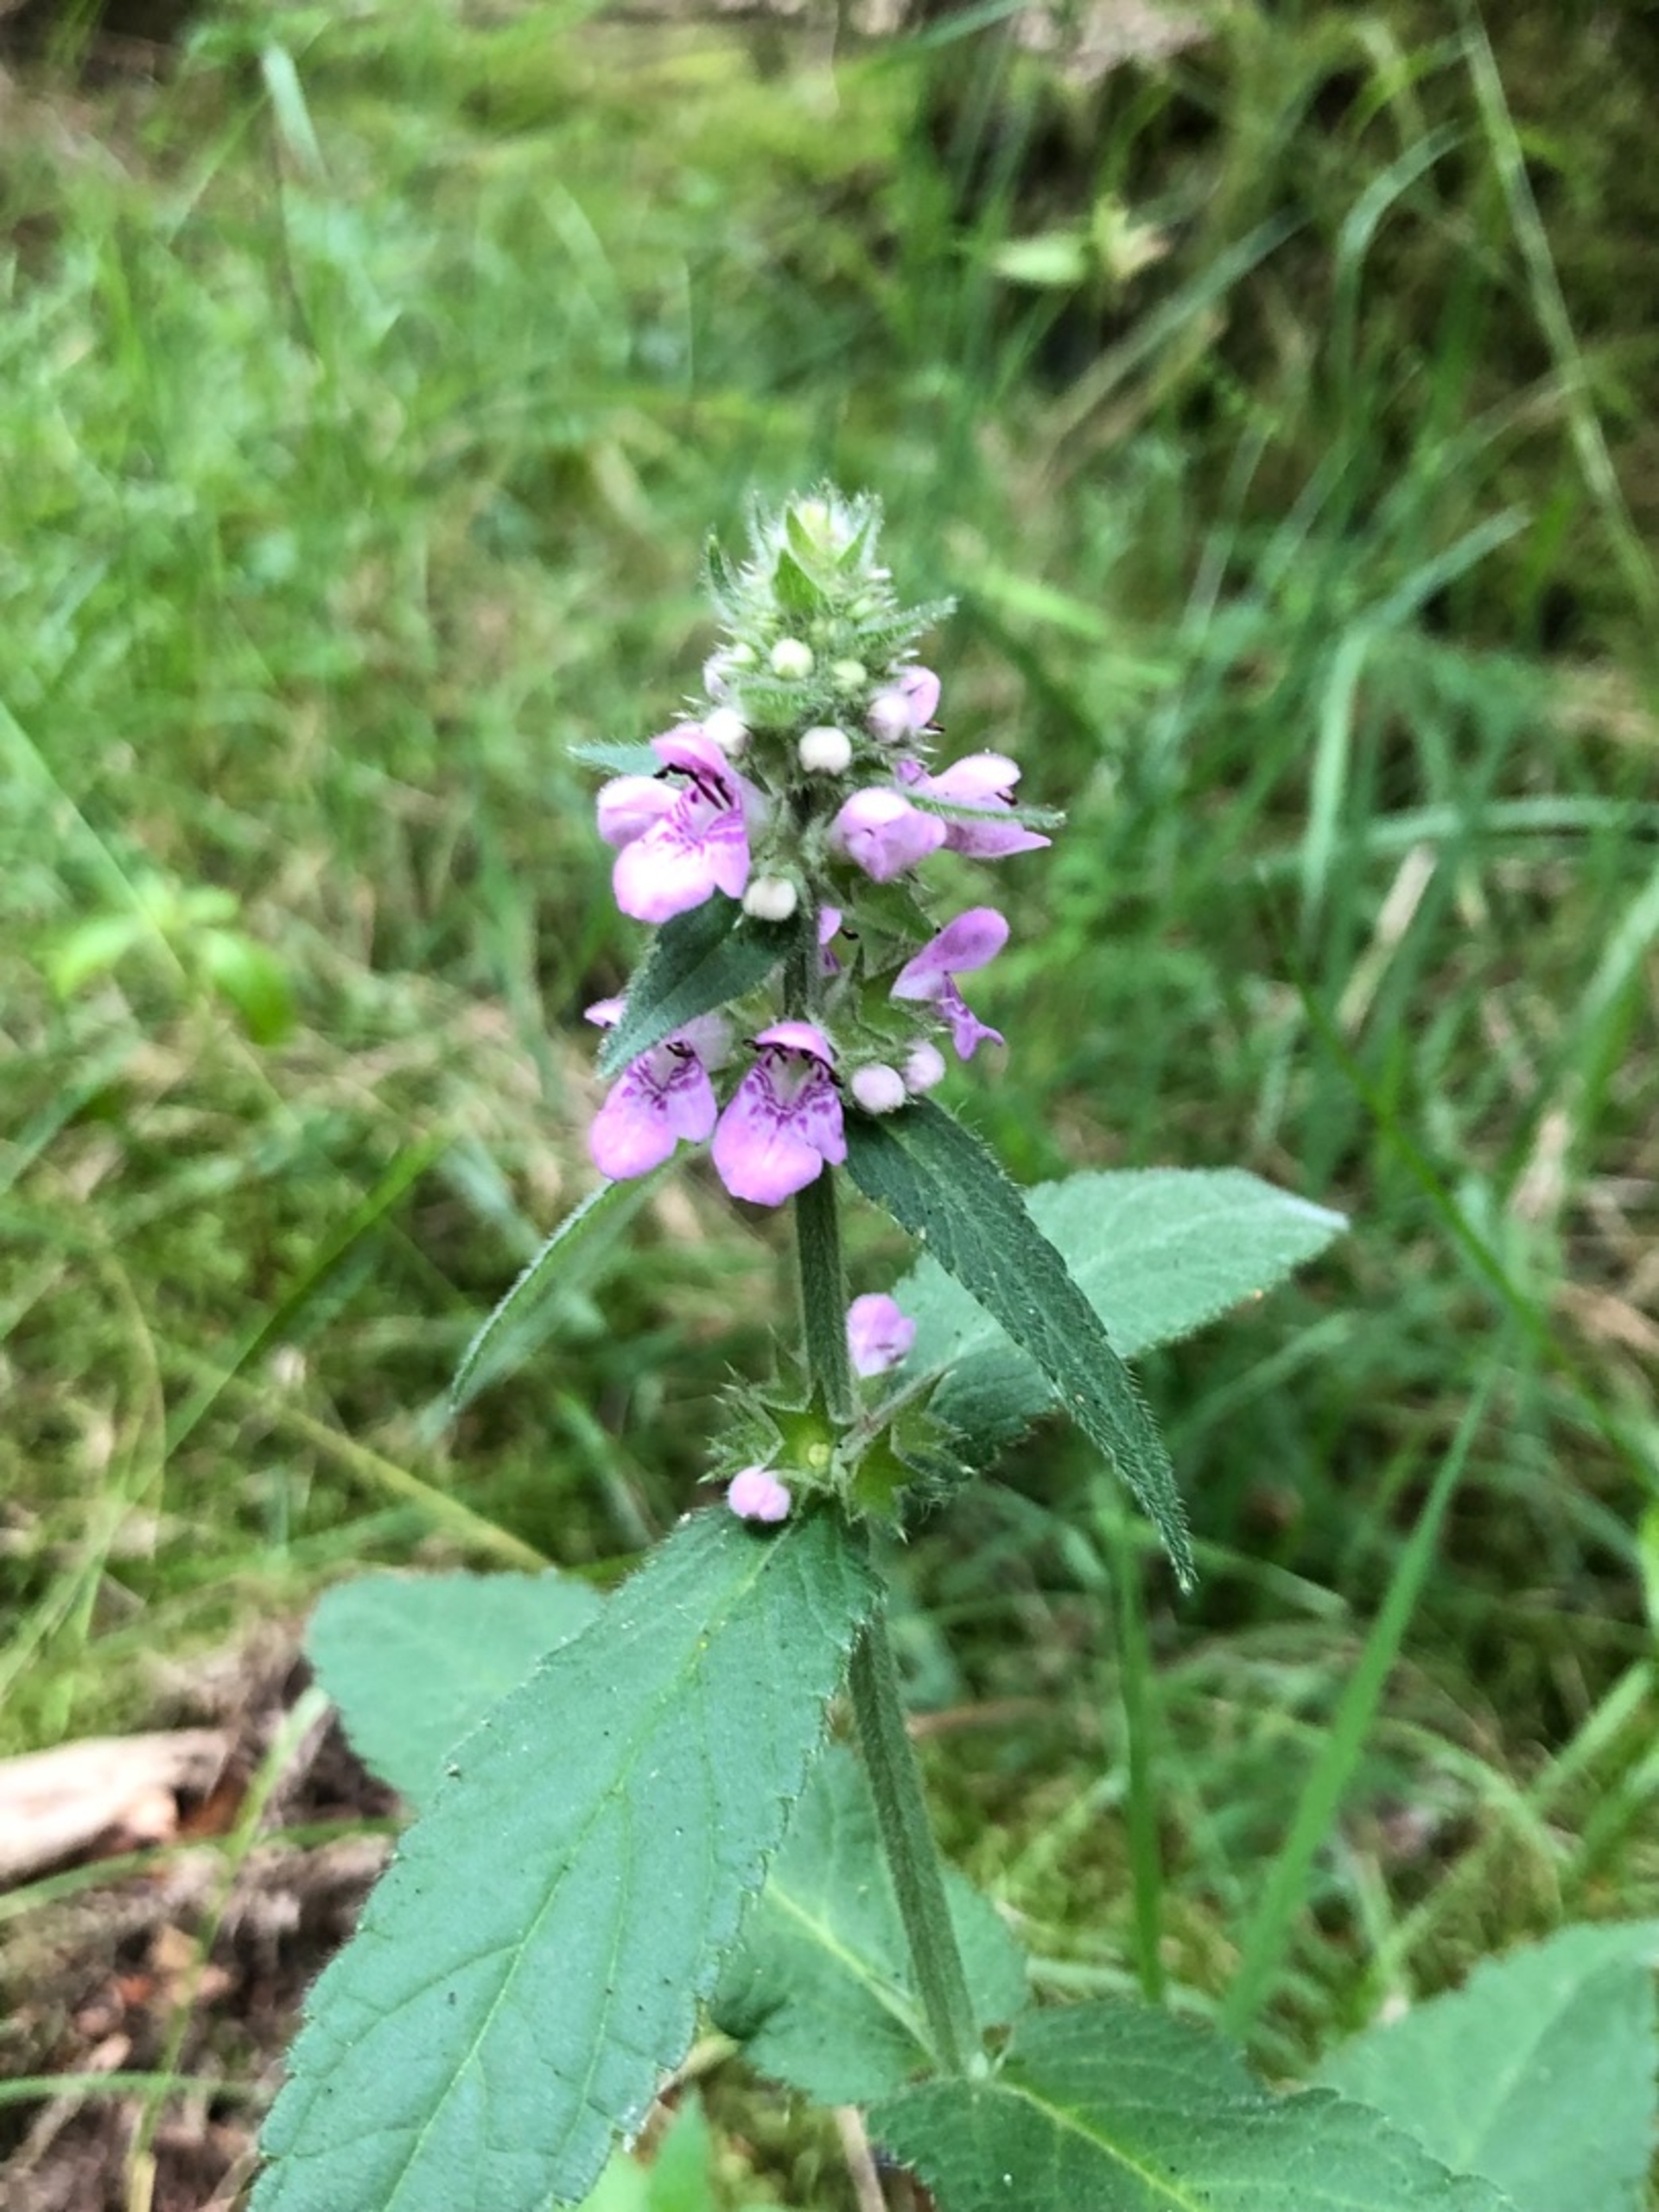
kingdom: Plantae
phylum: Tracheophyta
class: Magnoliopsida
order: Lamiales
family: Lamiaceae
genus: Stachys
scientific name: Stachys palustris
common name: Kær-galtetand
